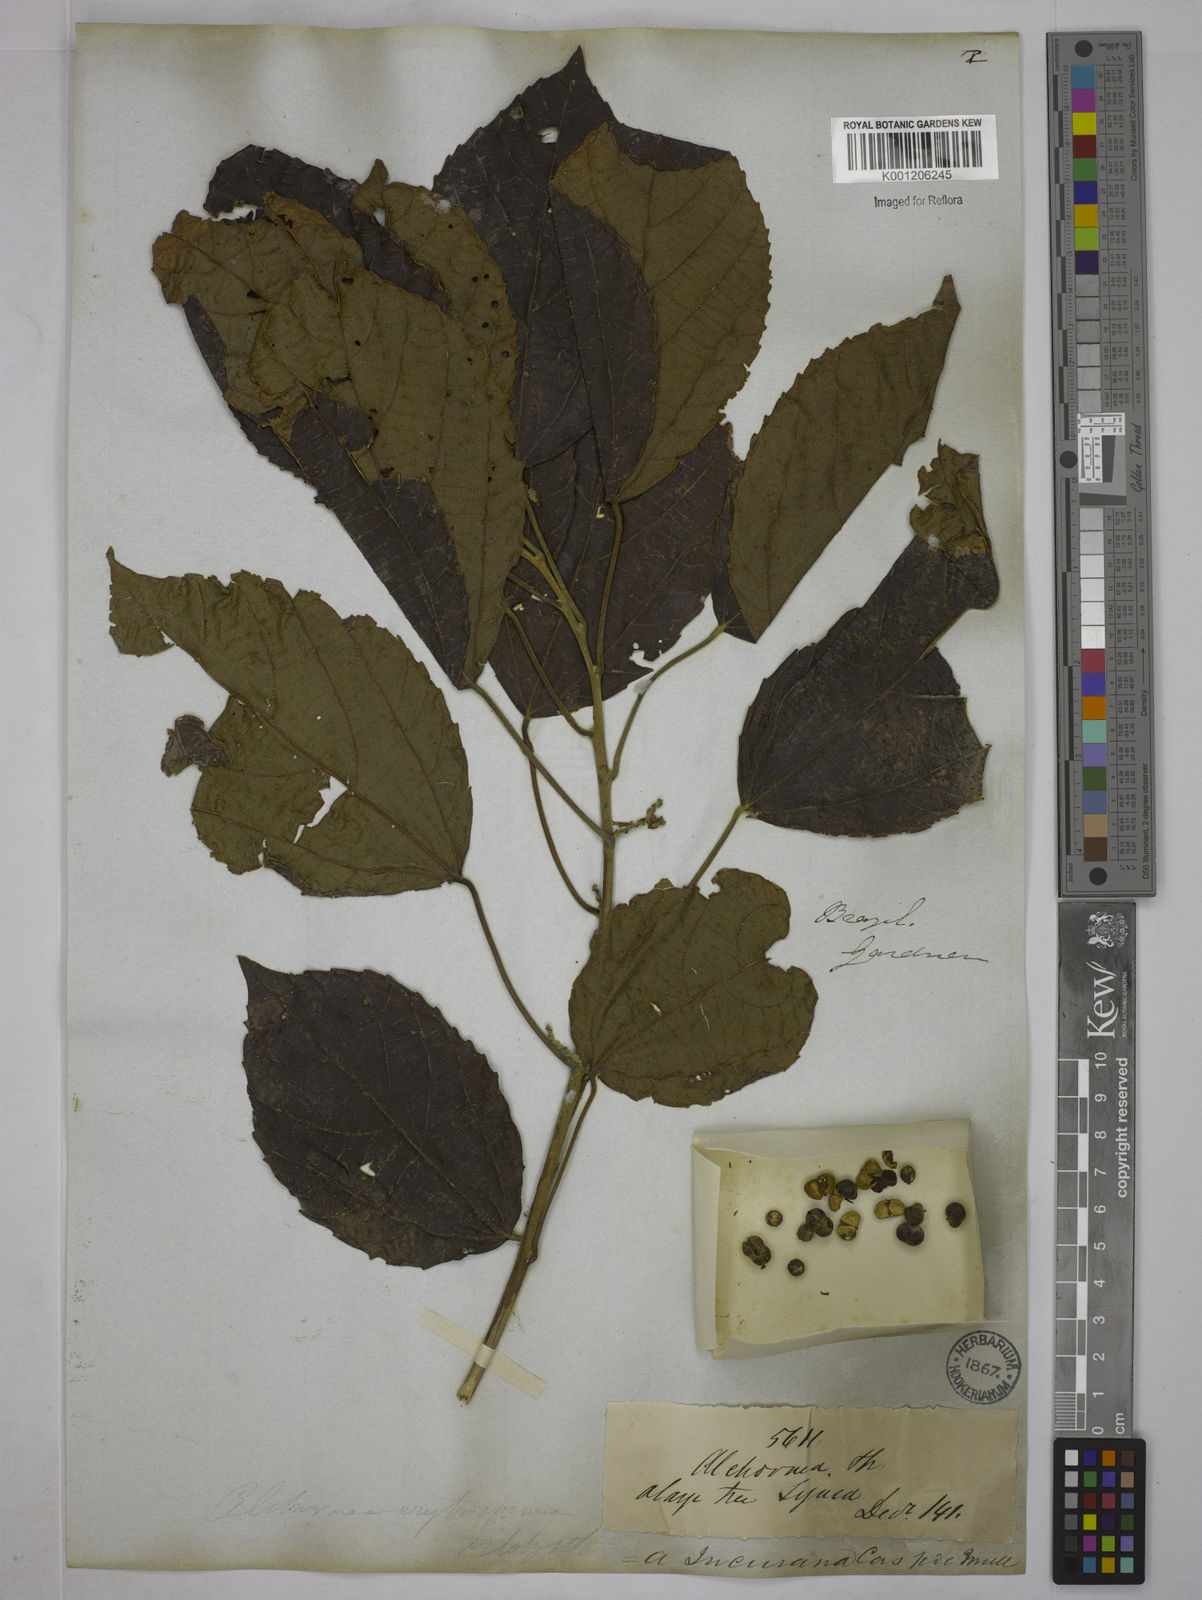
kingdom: Plantae
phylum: Tracheophyta
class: Magnoliopsida
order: Malpighiales
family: Euphorbiaceae
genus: Alchornea
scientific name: Alchornea glandulosa
